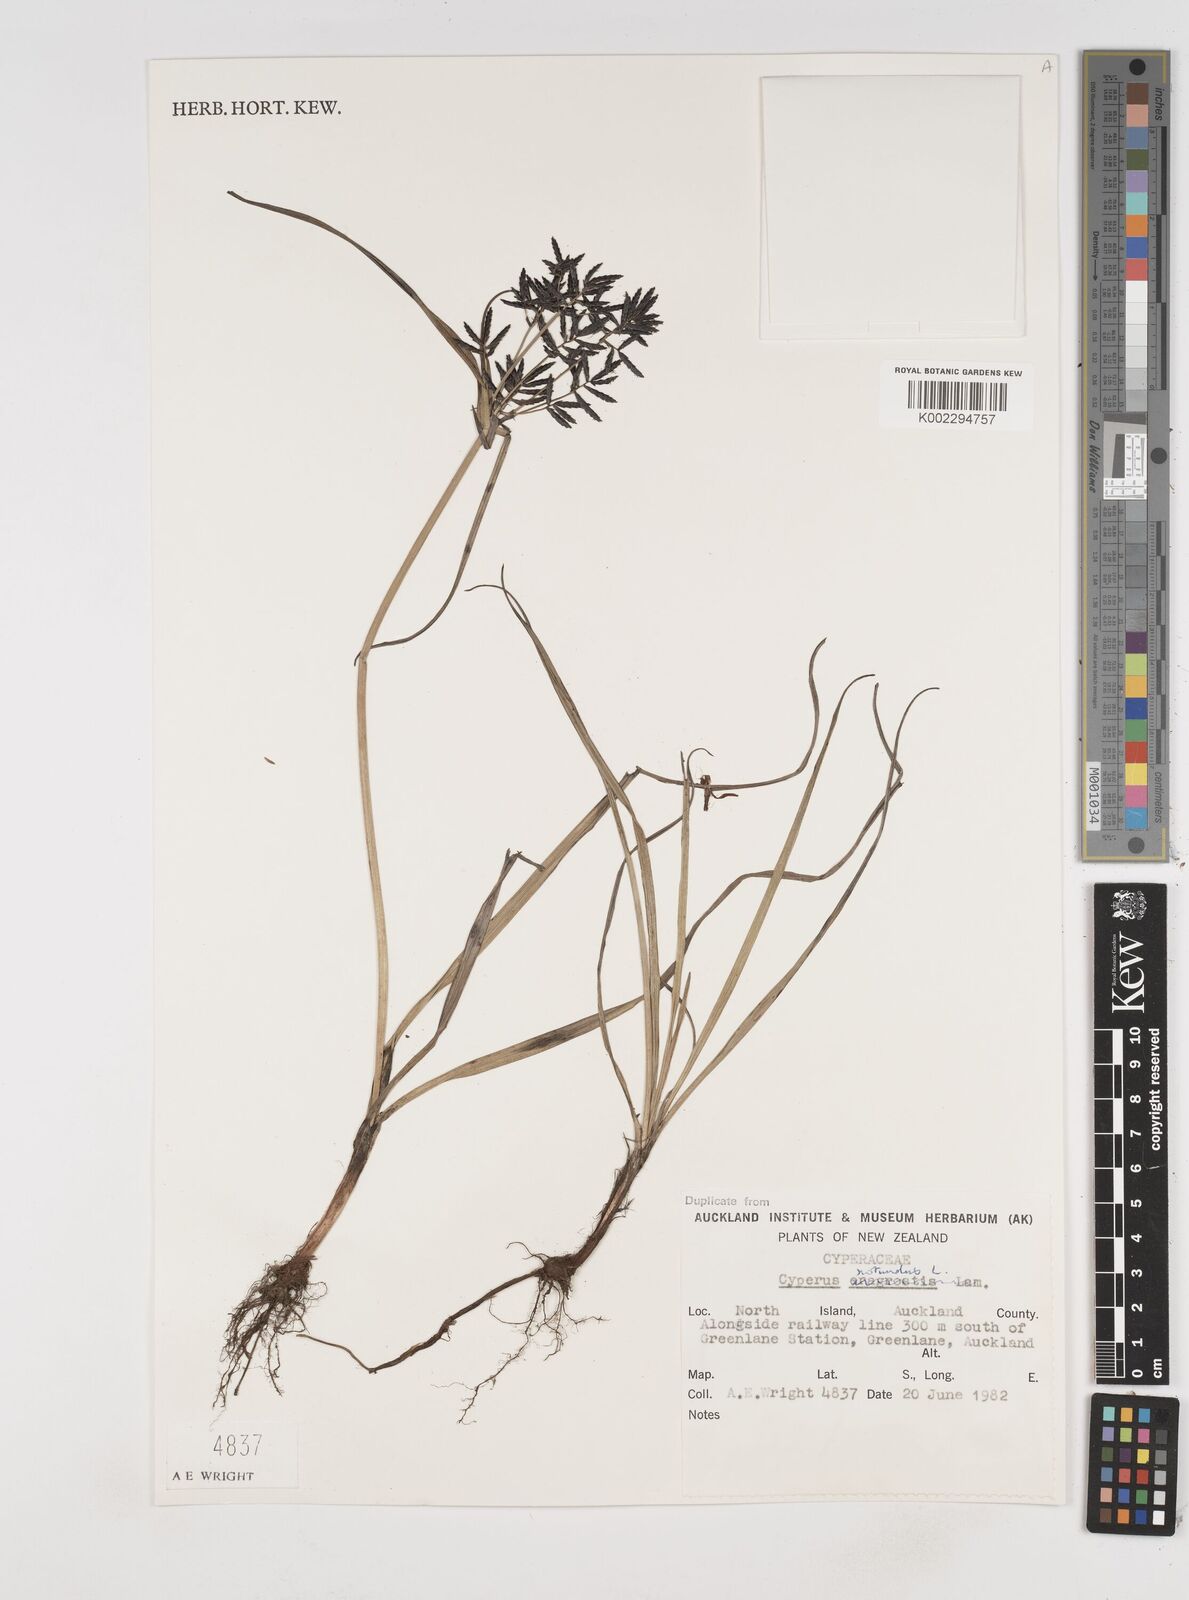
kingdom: Plantae
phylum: Tracheophyta
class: Liliopsida
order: Poales
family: Cyperaceae
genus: Cyperus
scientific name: Cyperus rotundus
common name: Nutgrass
